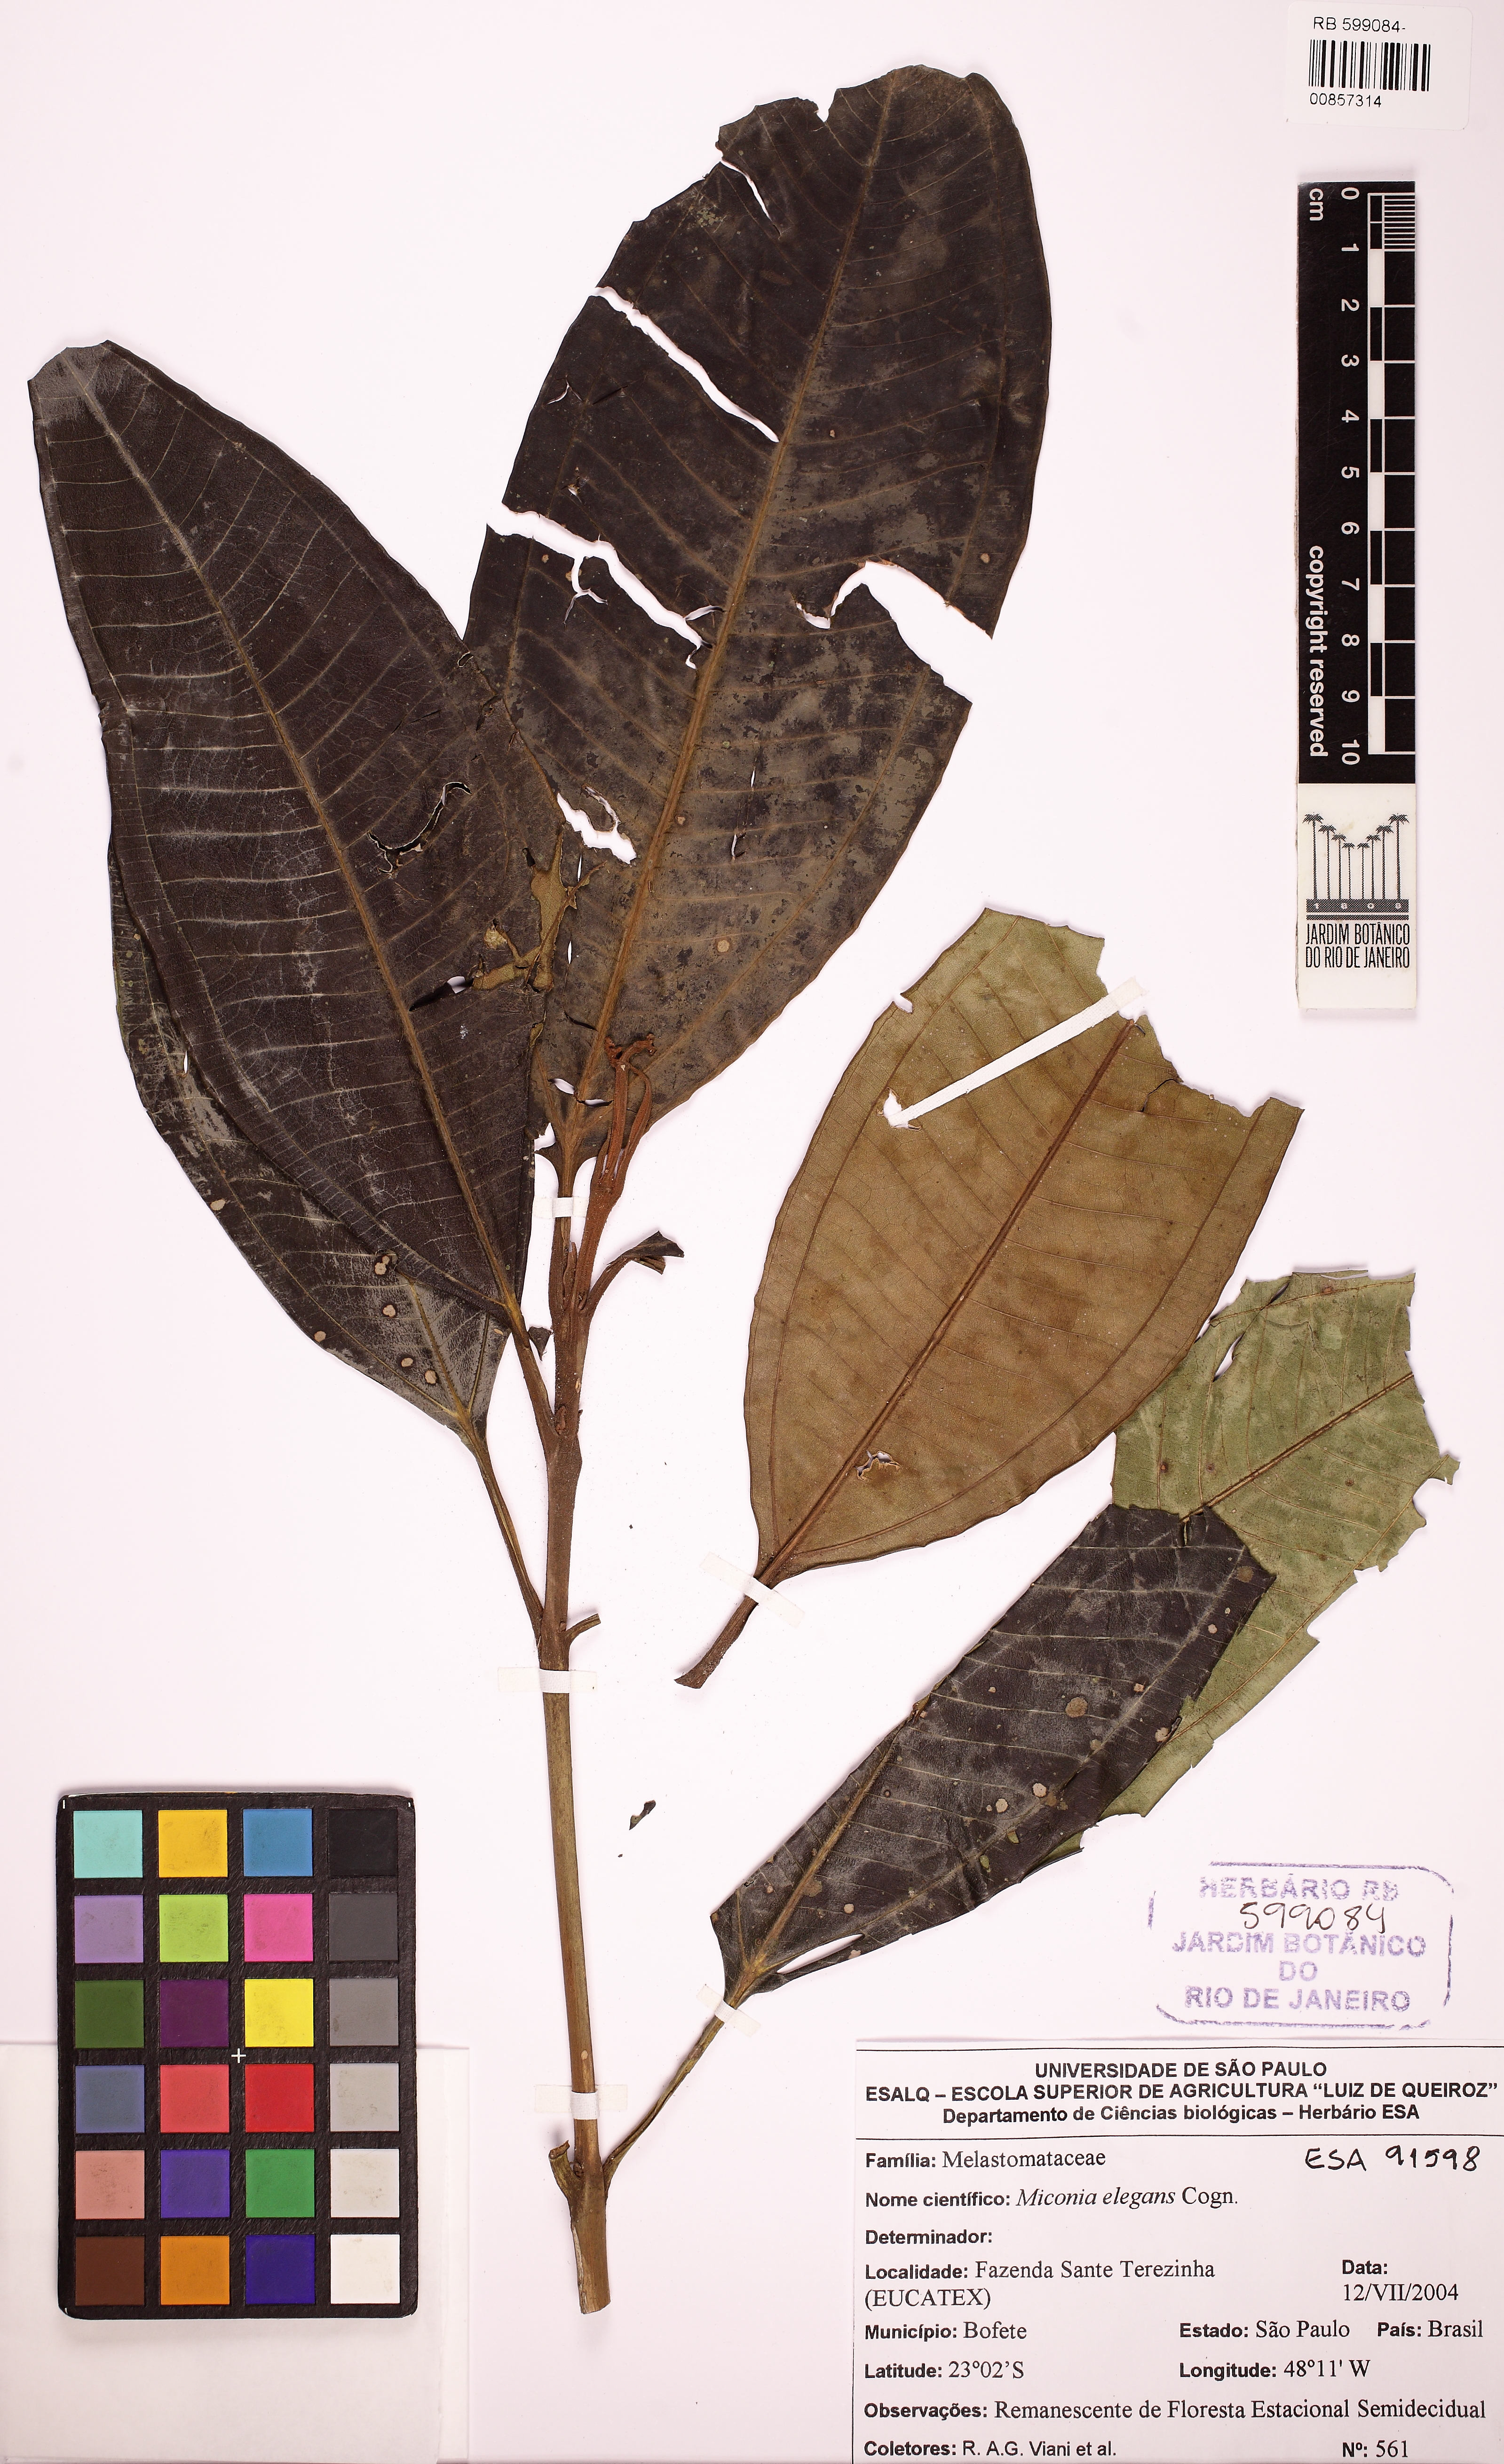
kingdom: Plantae
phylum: Tracheophyta
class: Magnoliopsida
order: Myrtales
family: Melastomataceae
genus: Miconia
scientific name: Miconia elegans
